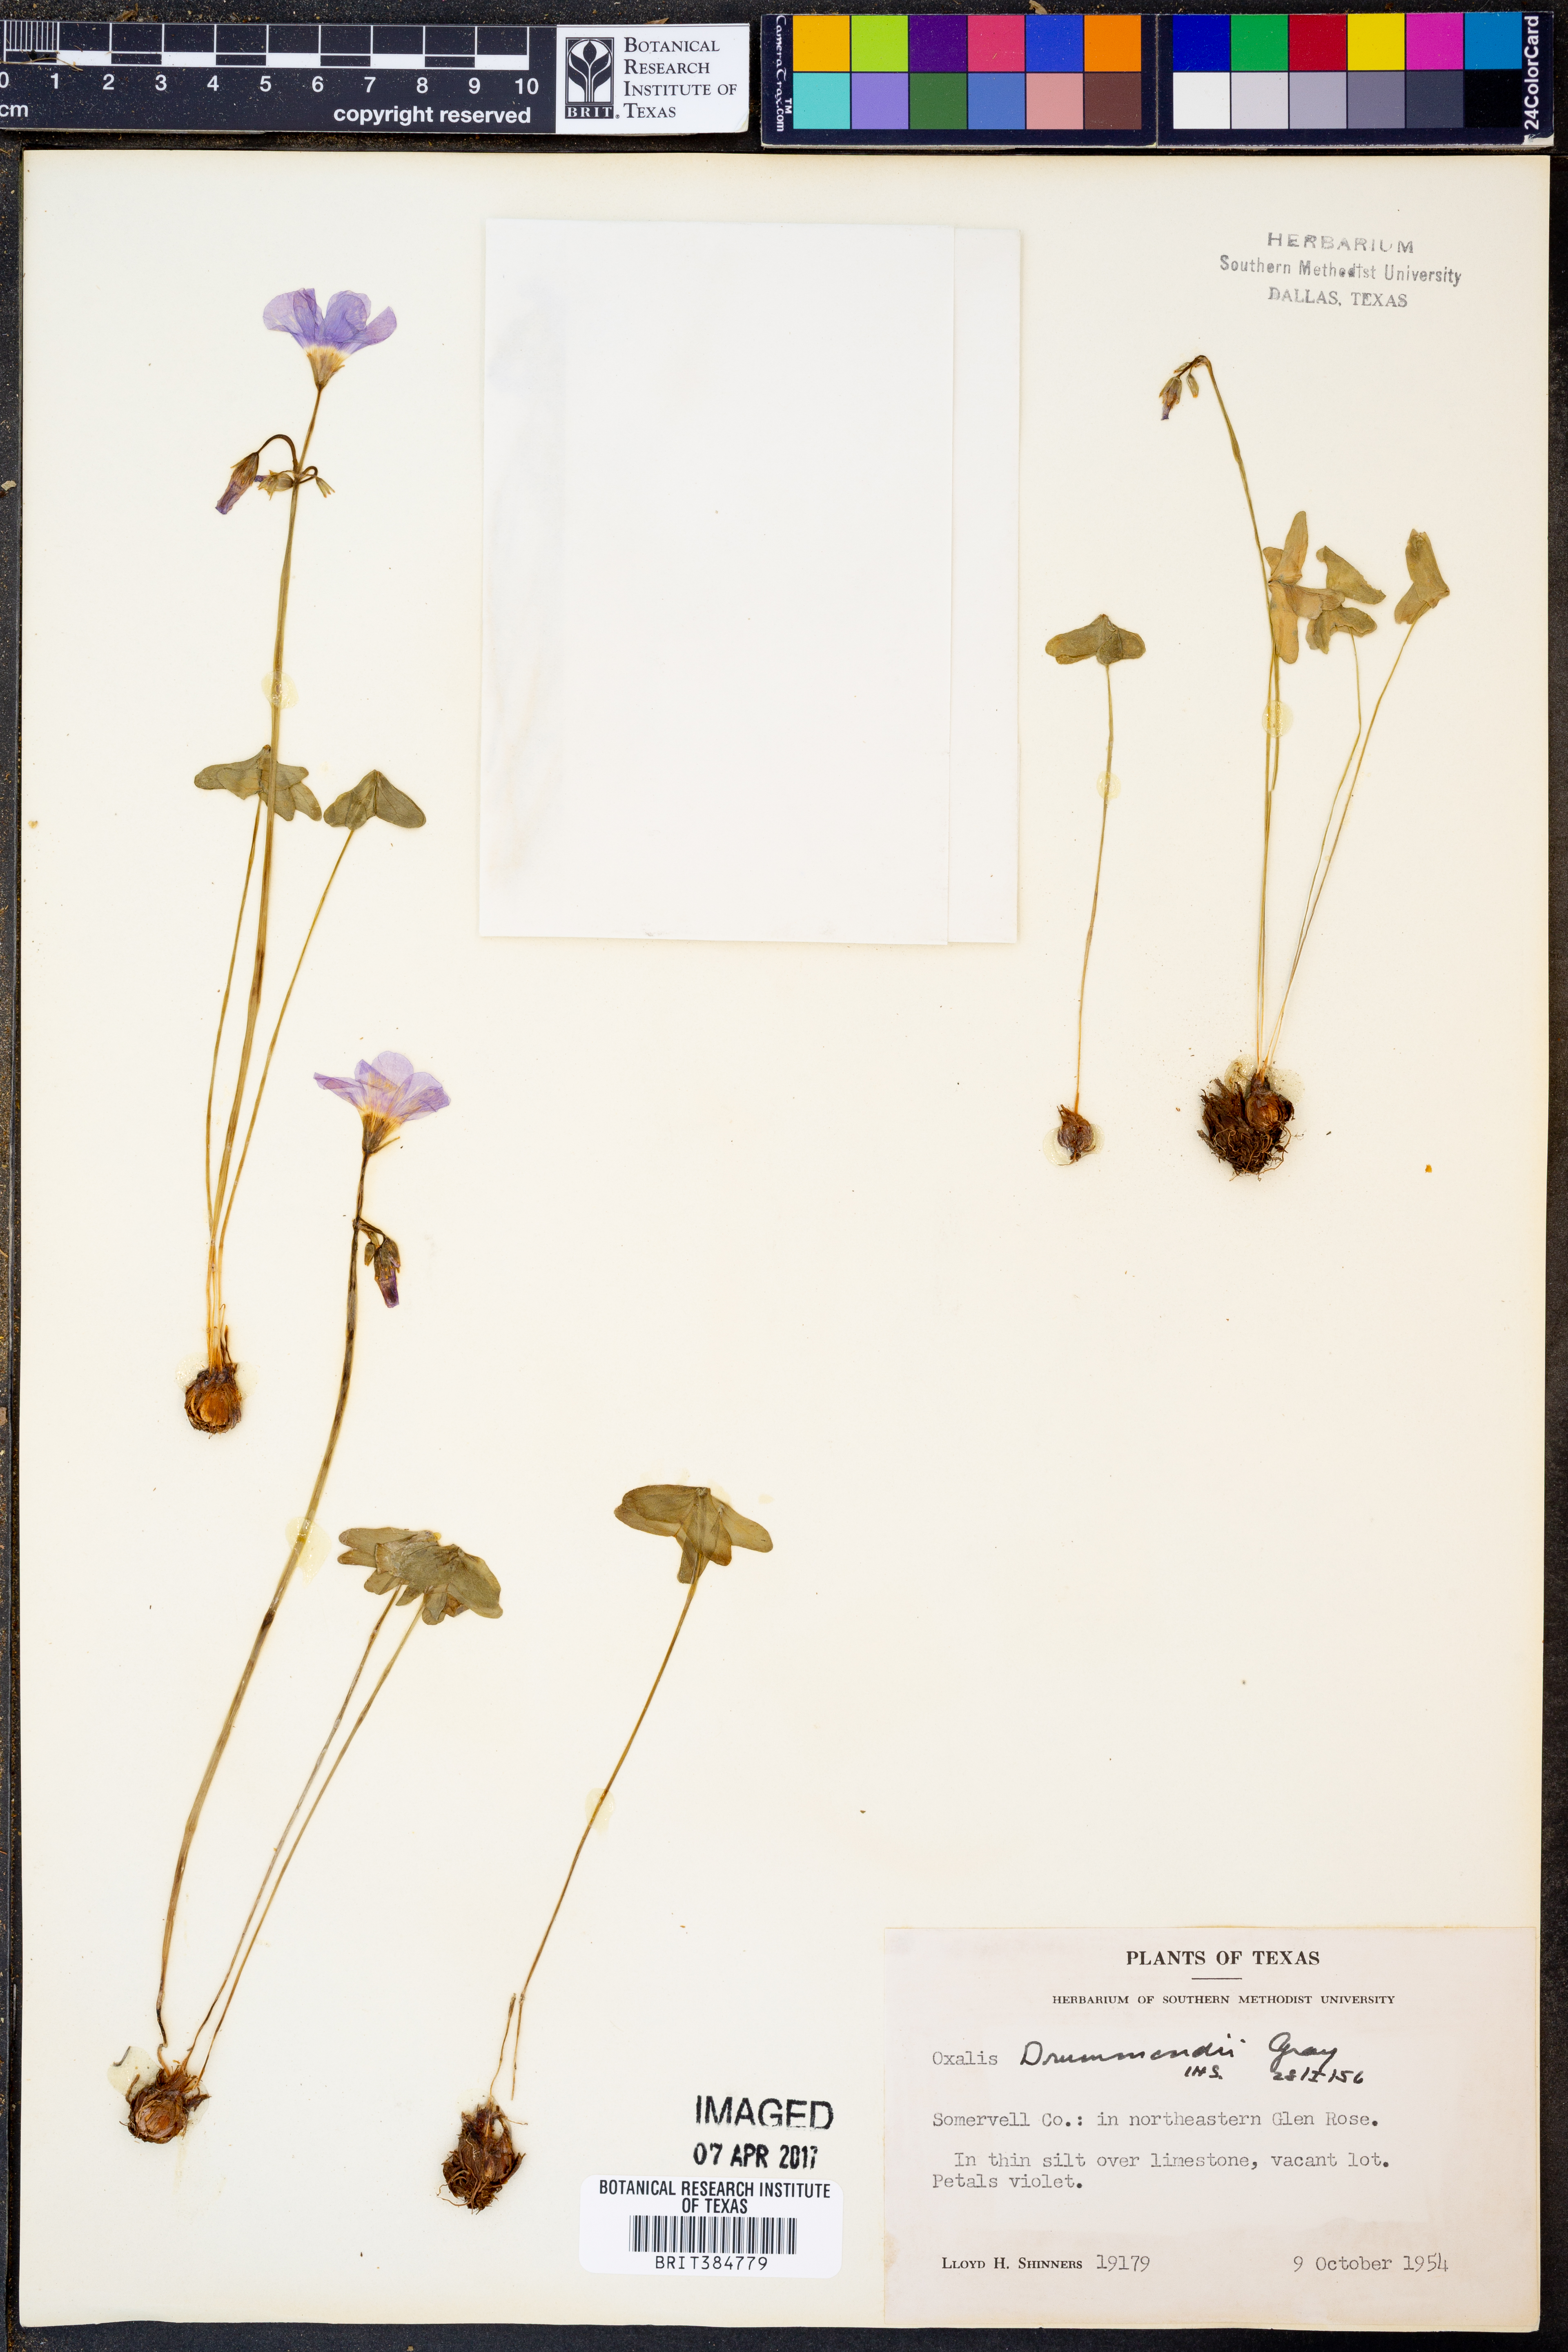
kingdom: Plantae
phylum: Tracheophyta
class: Magnoliopsida
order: Oxalidales
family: Oxalidaceae
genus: Oxalis
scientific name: Oxalis drummondii
